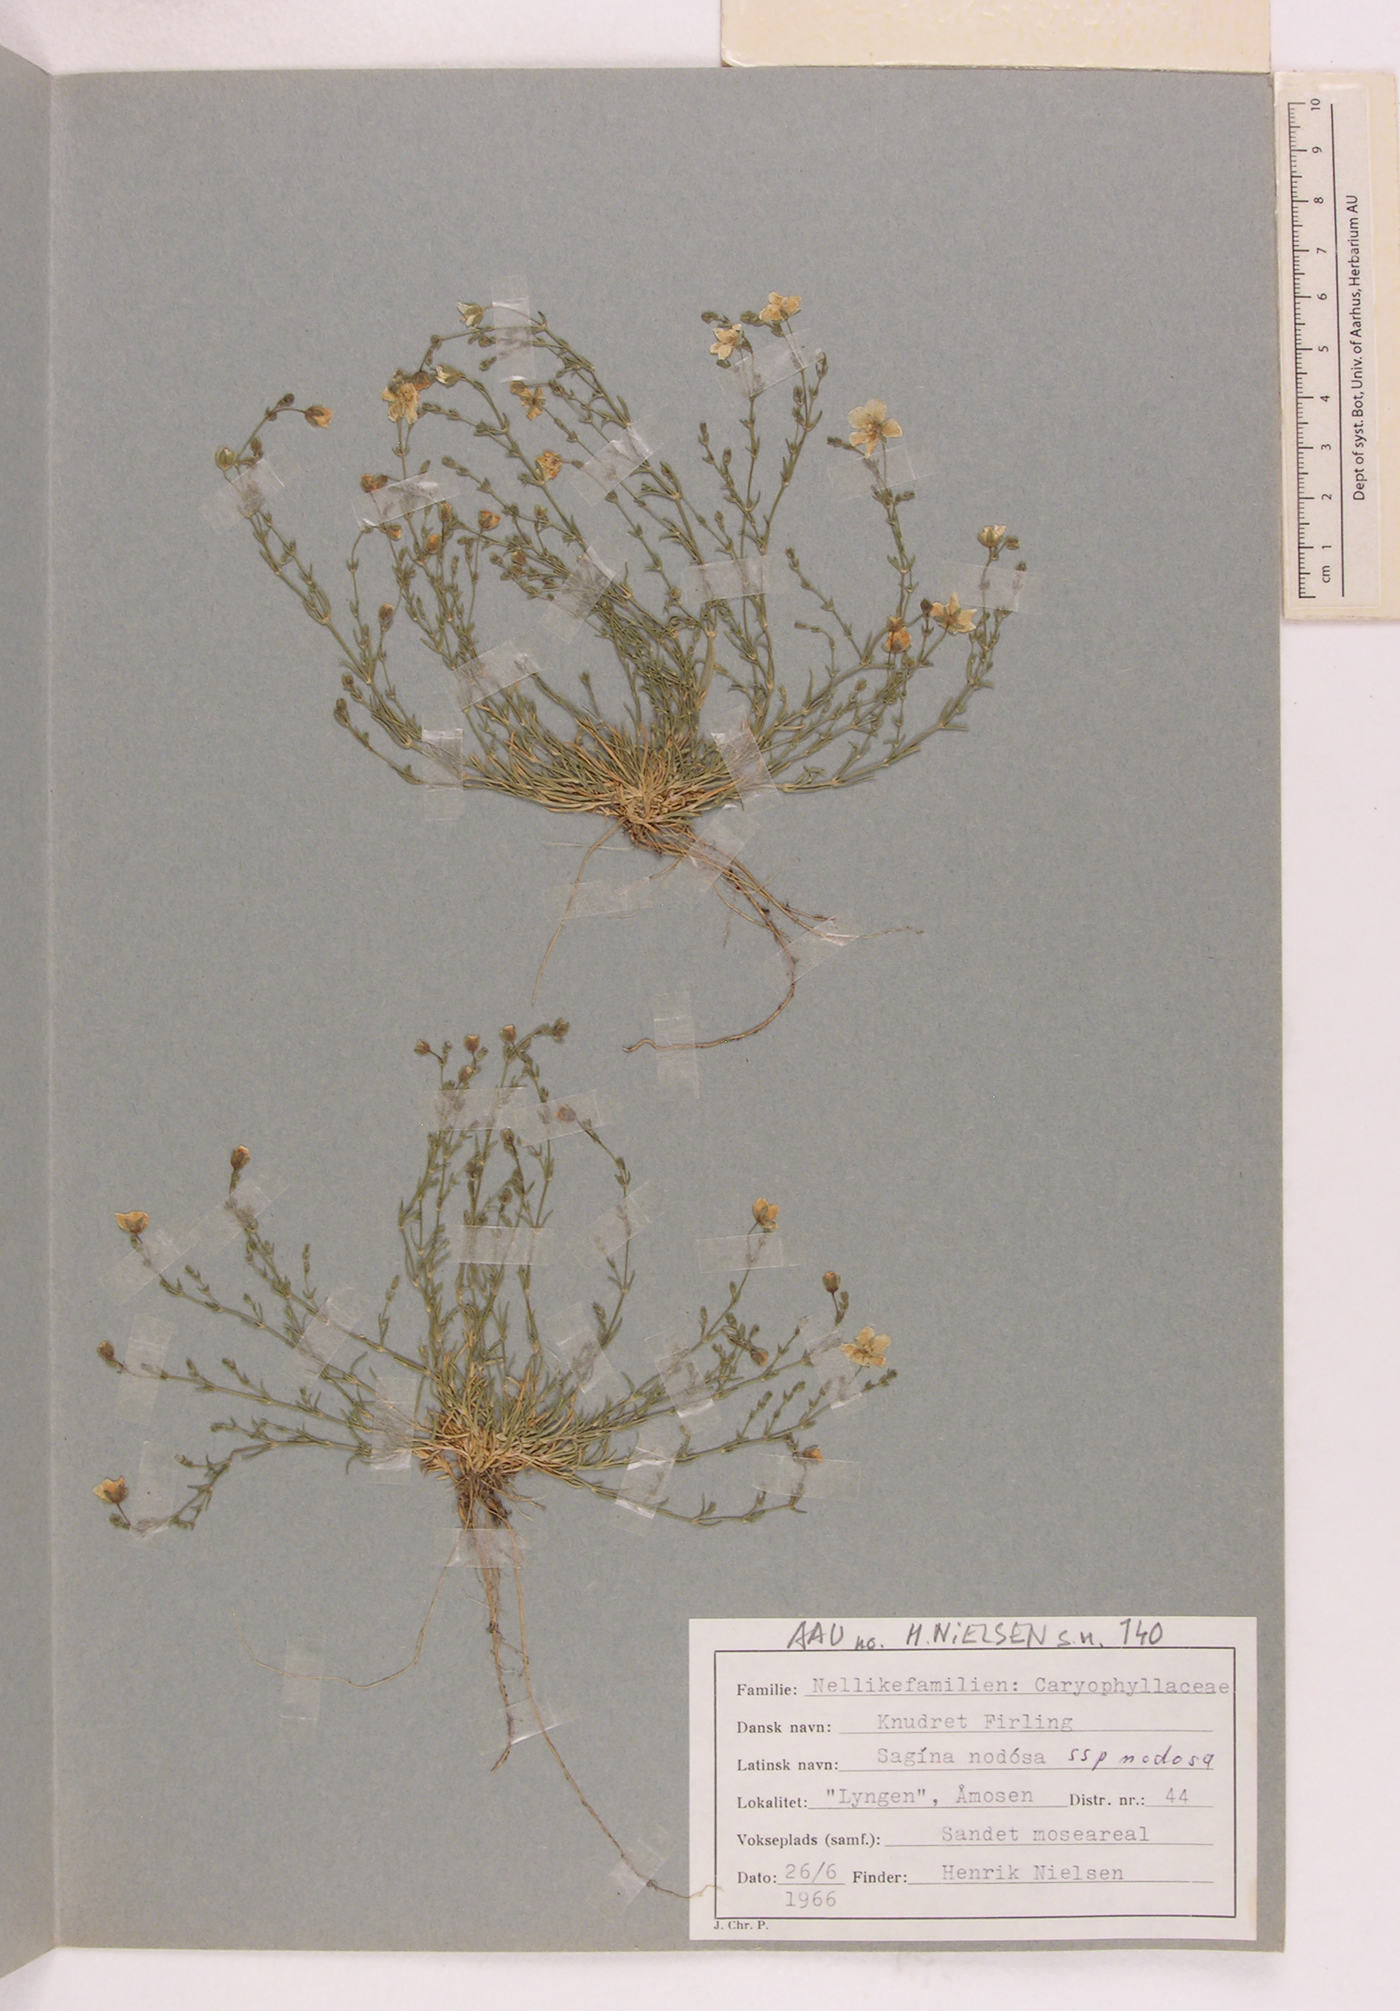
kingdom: Plantae
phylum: Tracheophyta
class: Magnoliopsida
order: Caryophyllales
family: Caryophyllaceae
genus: Sagina
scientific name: Sagina nodosa
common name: Knotted pearlwort
